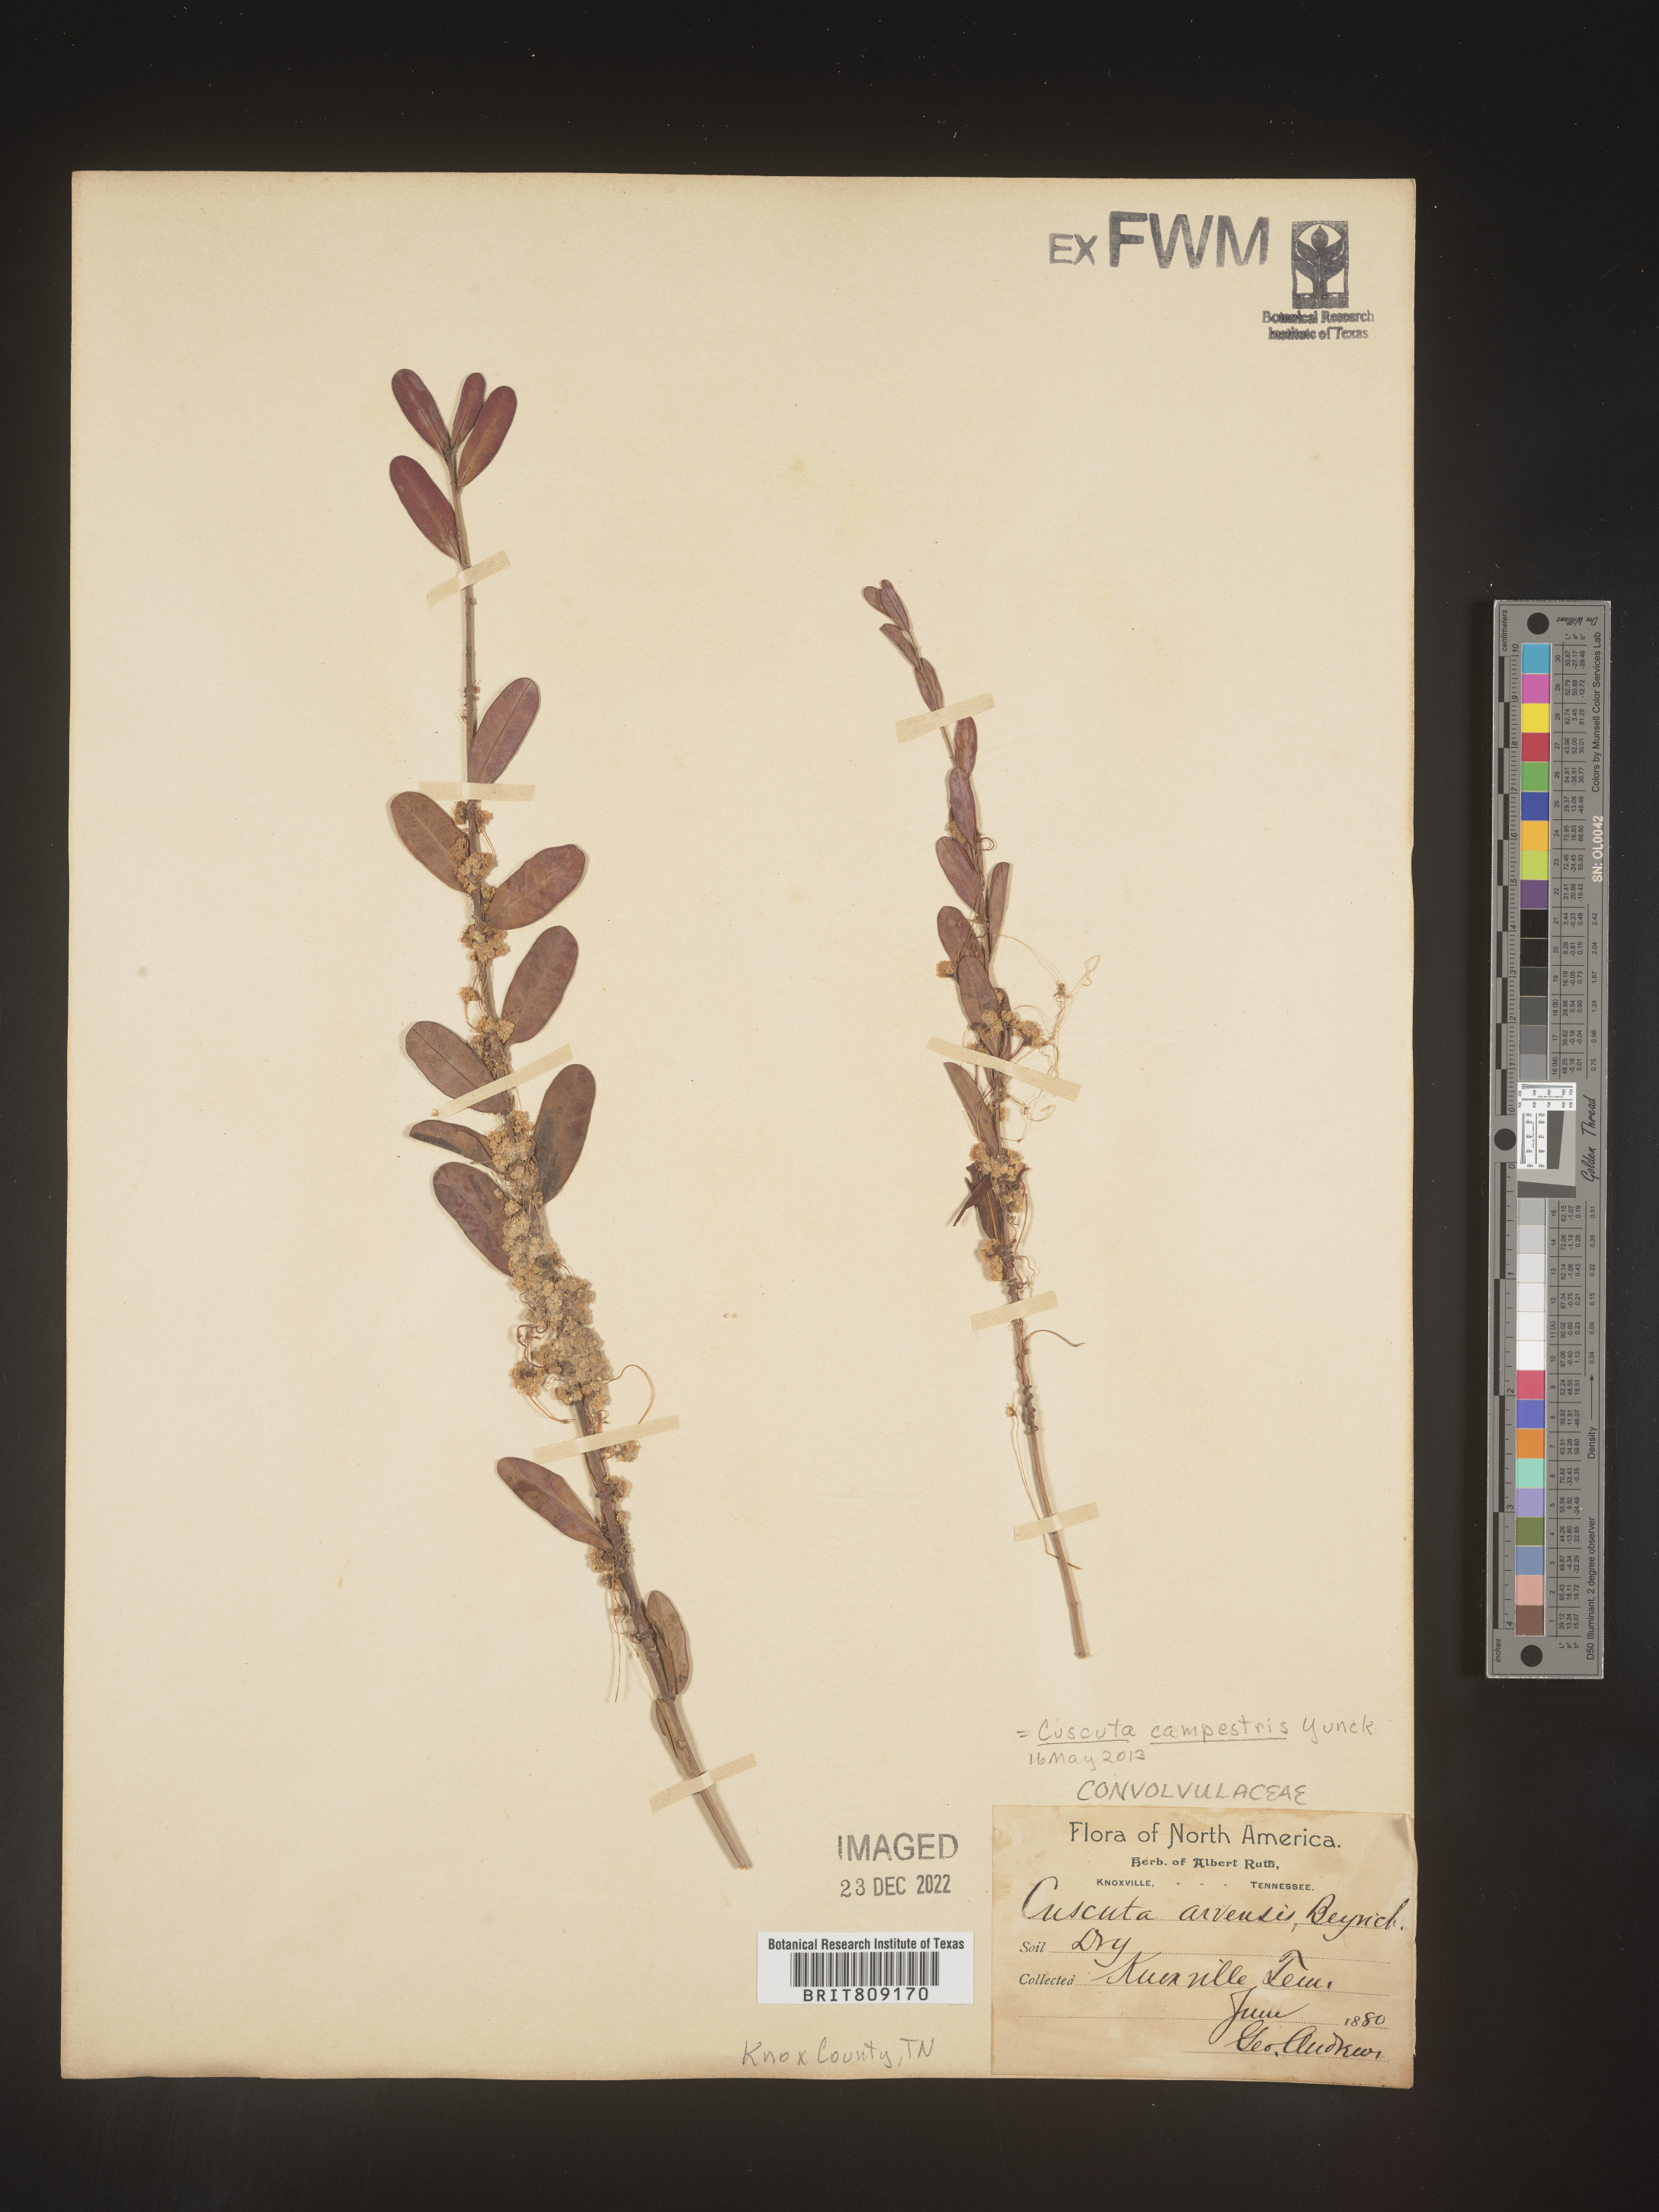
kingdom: Plantae
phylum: Tracheophyta
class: Magnoliopsida
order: Solanales
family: Convolvulaceae
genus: Cuscuta
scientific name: Cuscuta campestris
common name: Yellow dodder
